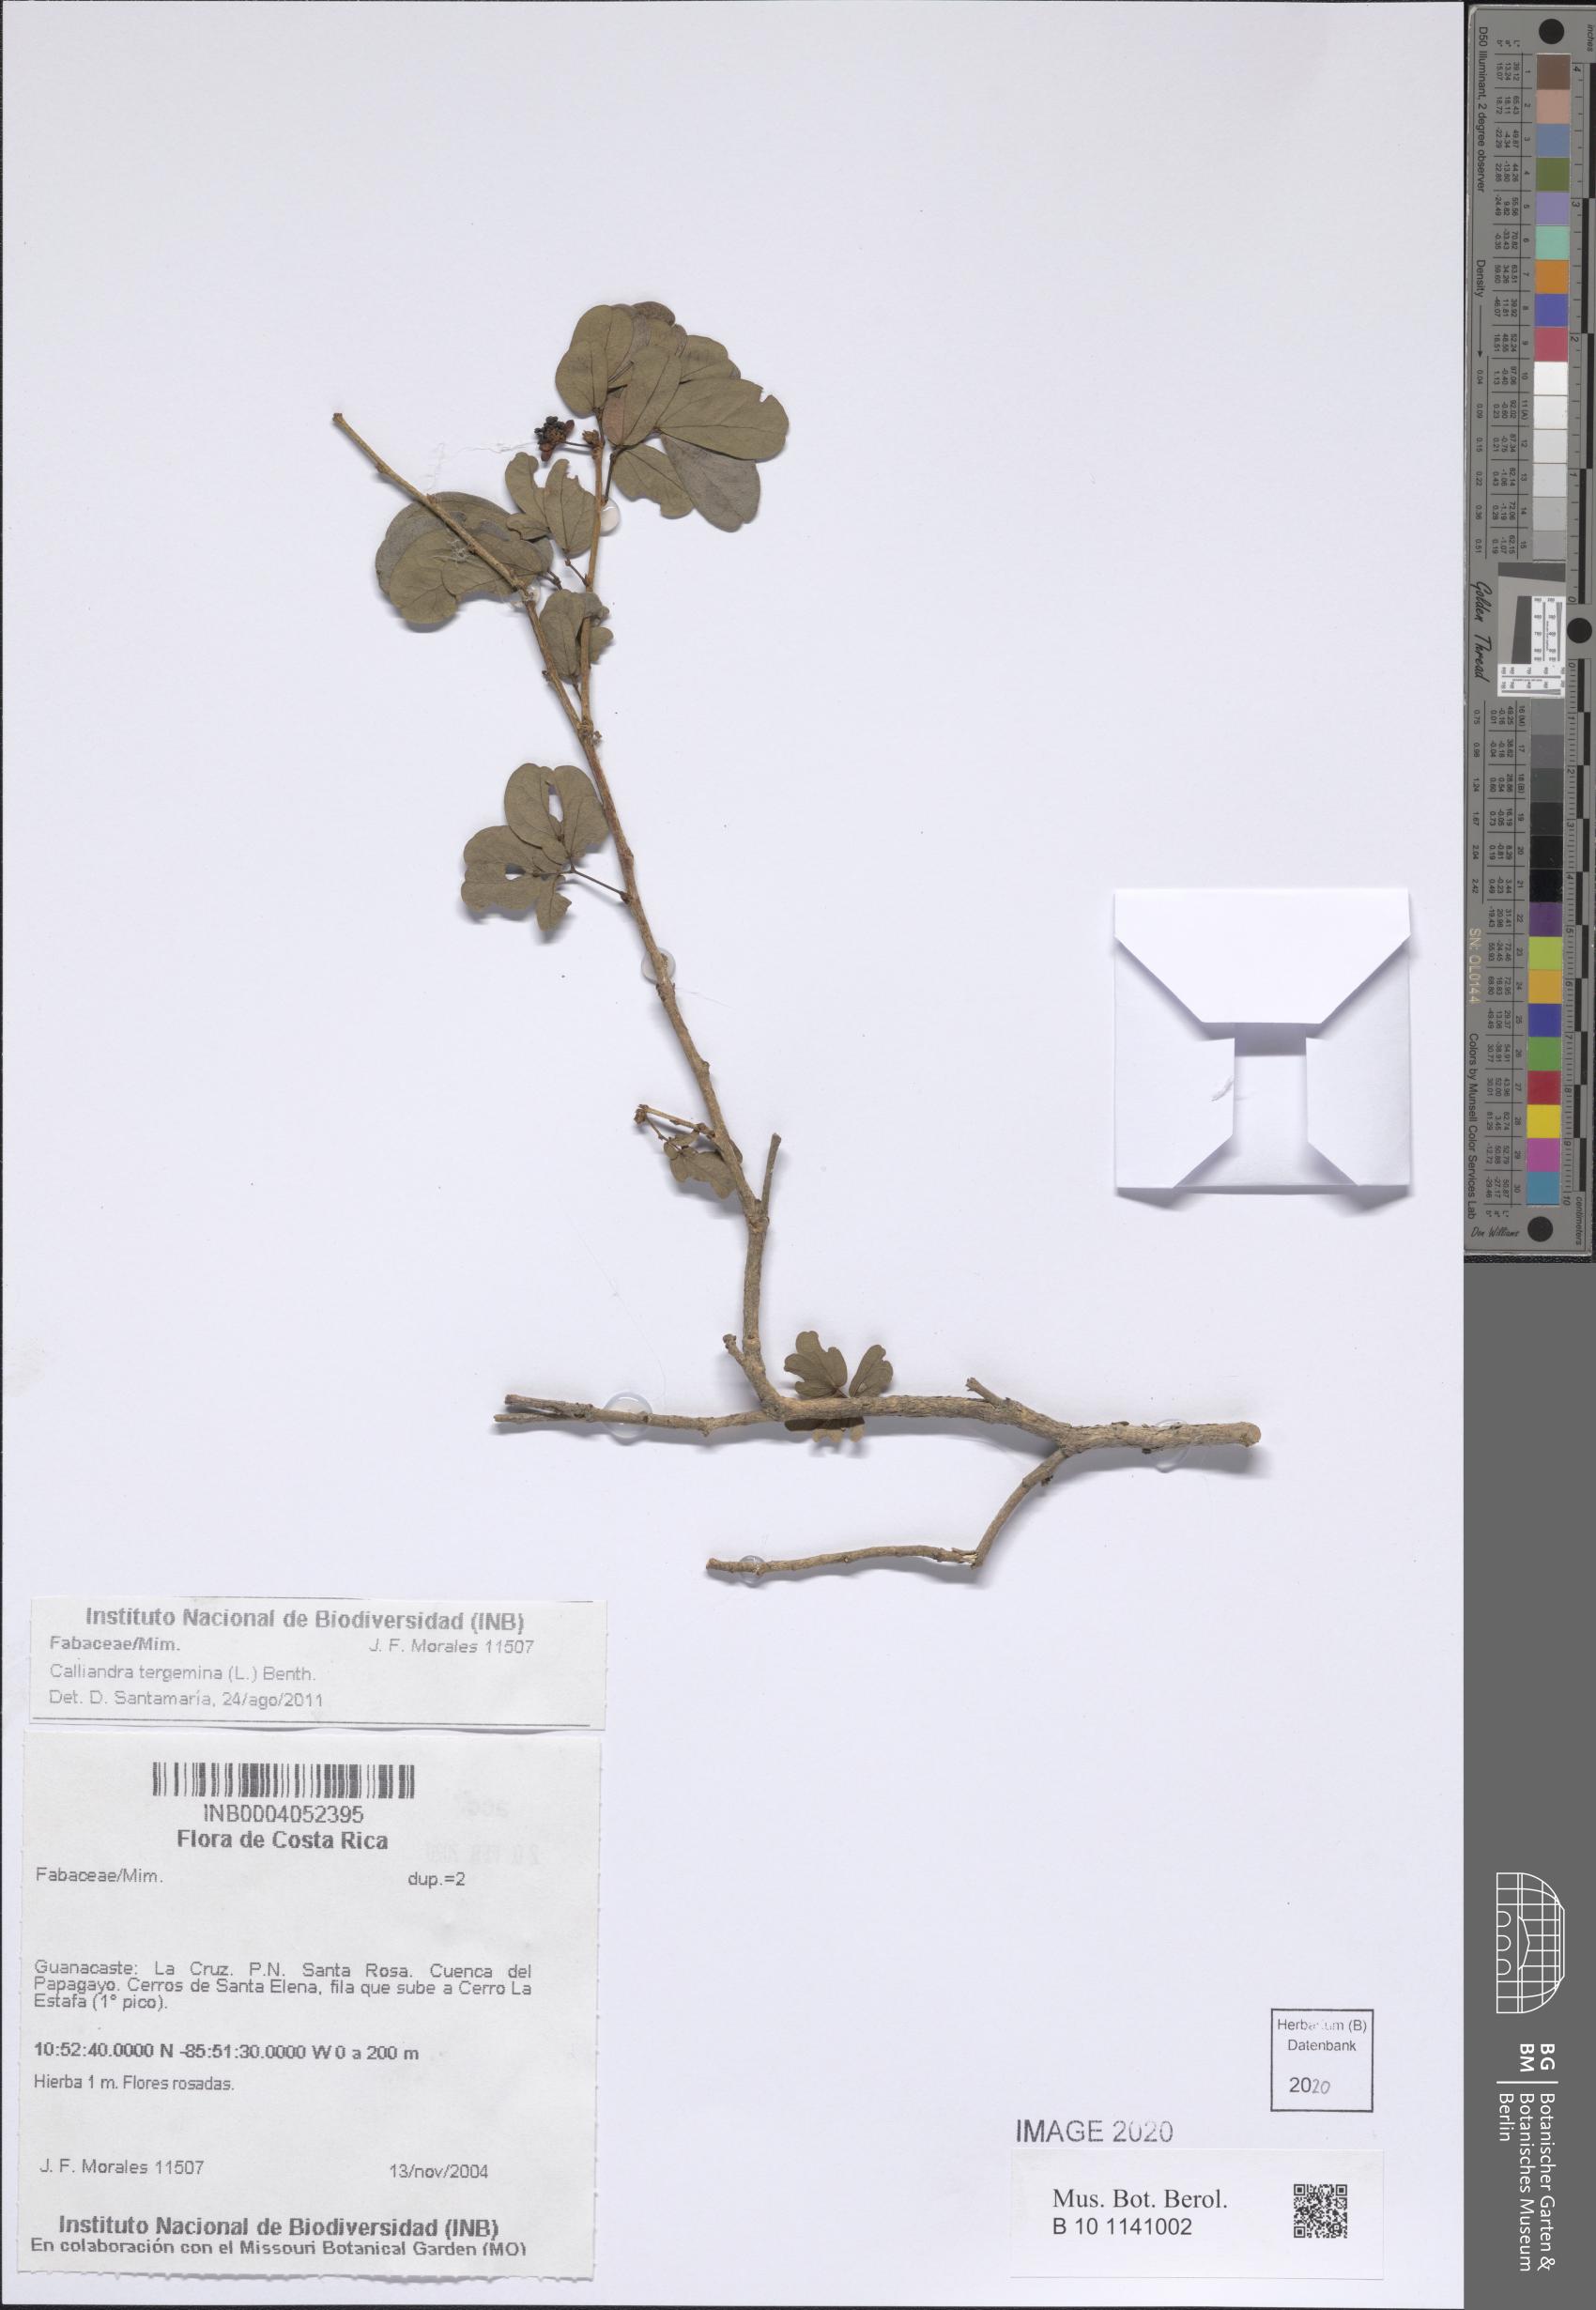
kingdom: Plantae
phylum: Tracheophyta
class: Magnoliopsida
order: Fabales
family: Fabaceae
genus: Calliandra
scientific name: Calliandra tergemina
